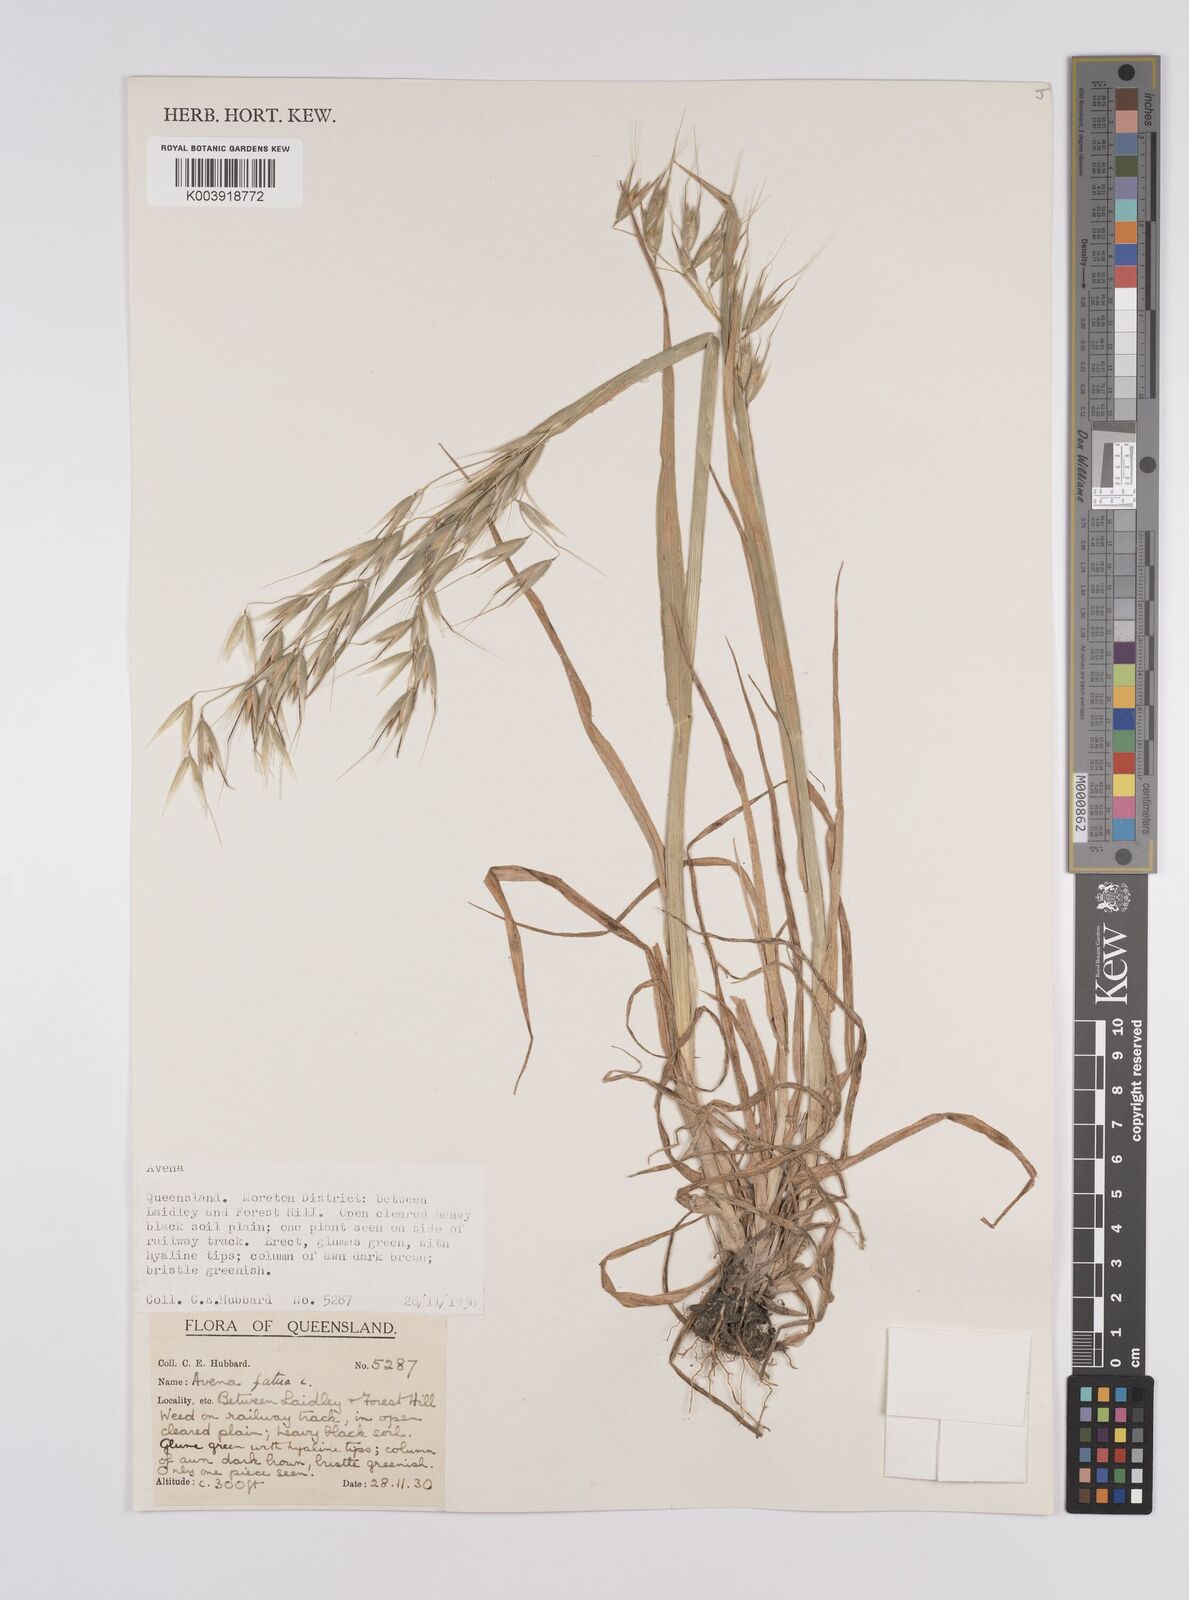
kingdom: Plantae
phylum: Tracheophyta
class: Liliopsida
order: Poales
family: Poaceae
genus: Avena
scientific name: Avena fatua
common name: Wild oat
